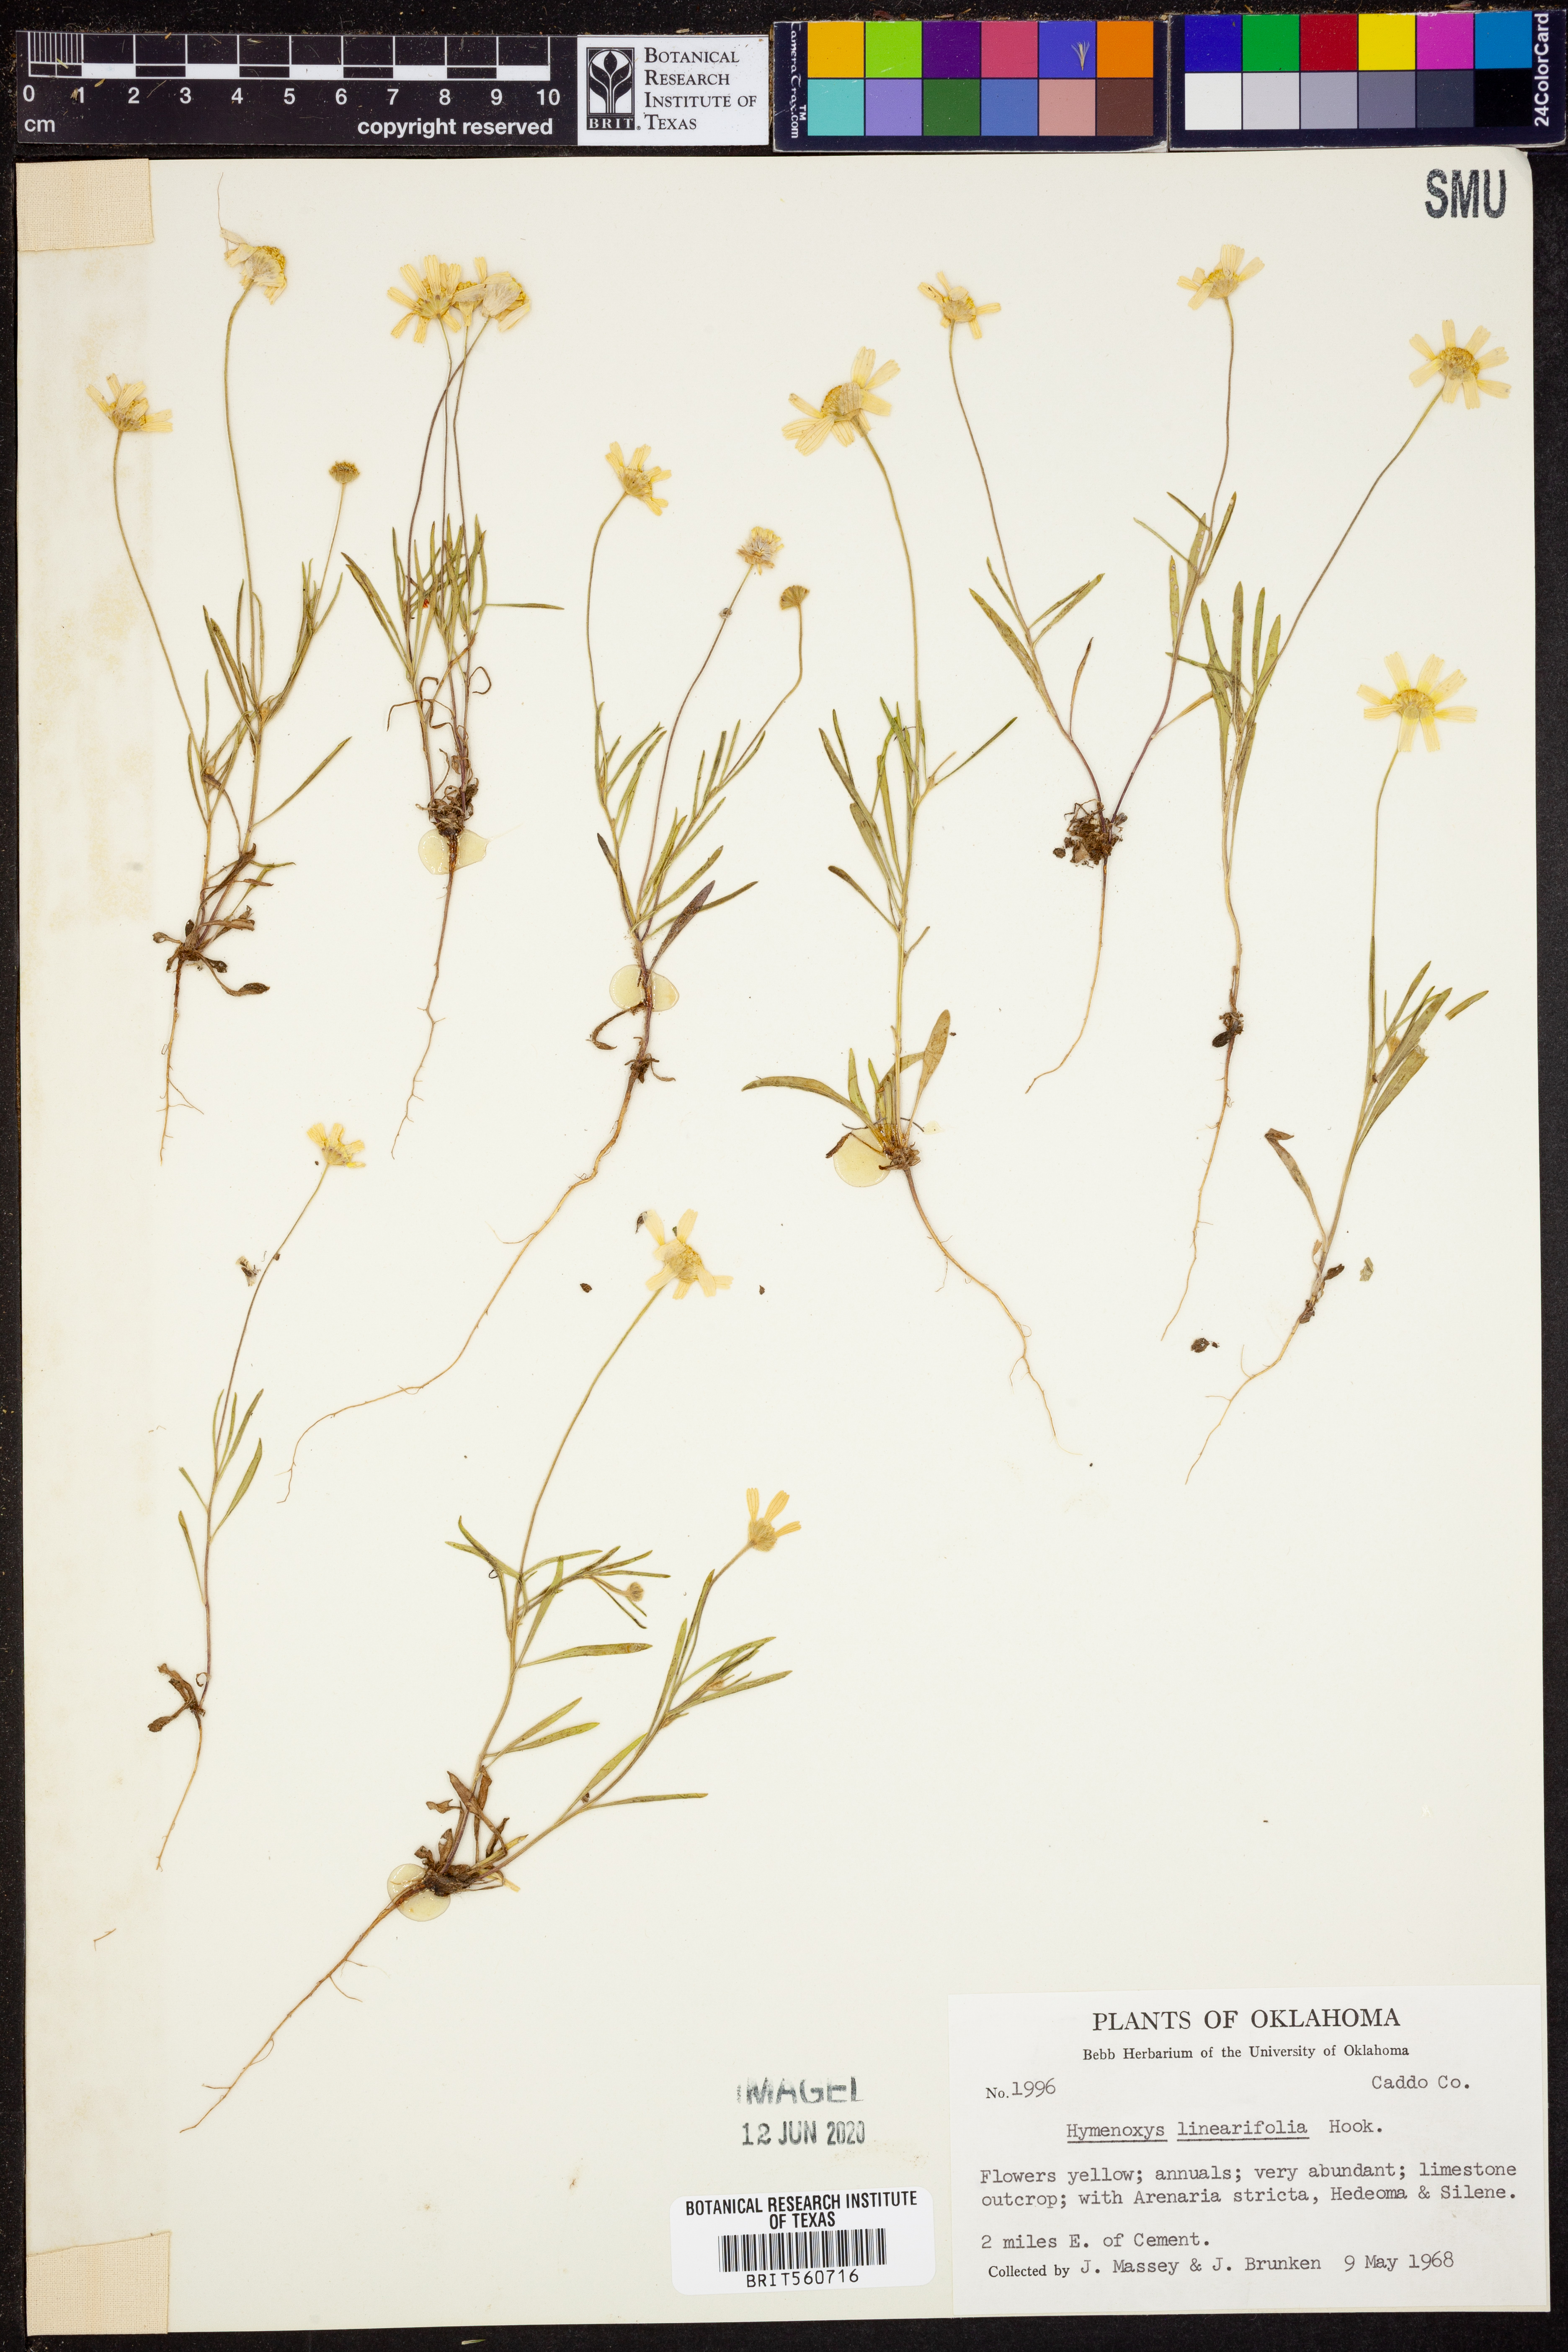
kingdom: Plantae
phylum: Tracheophyta
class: Magnoliopsida
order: Asterales
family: Asteraceae
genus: Tetraneuris
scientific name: Tetraneuris linearifolia
